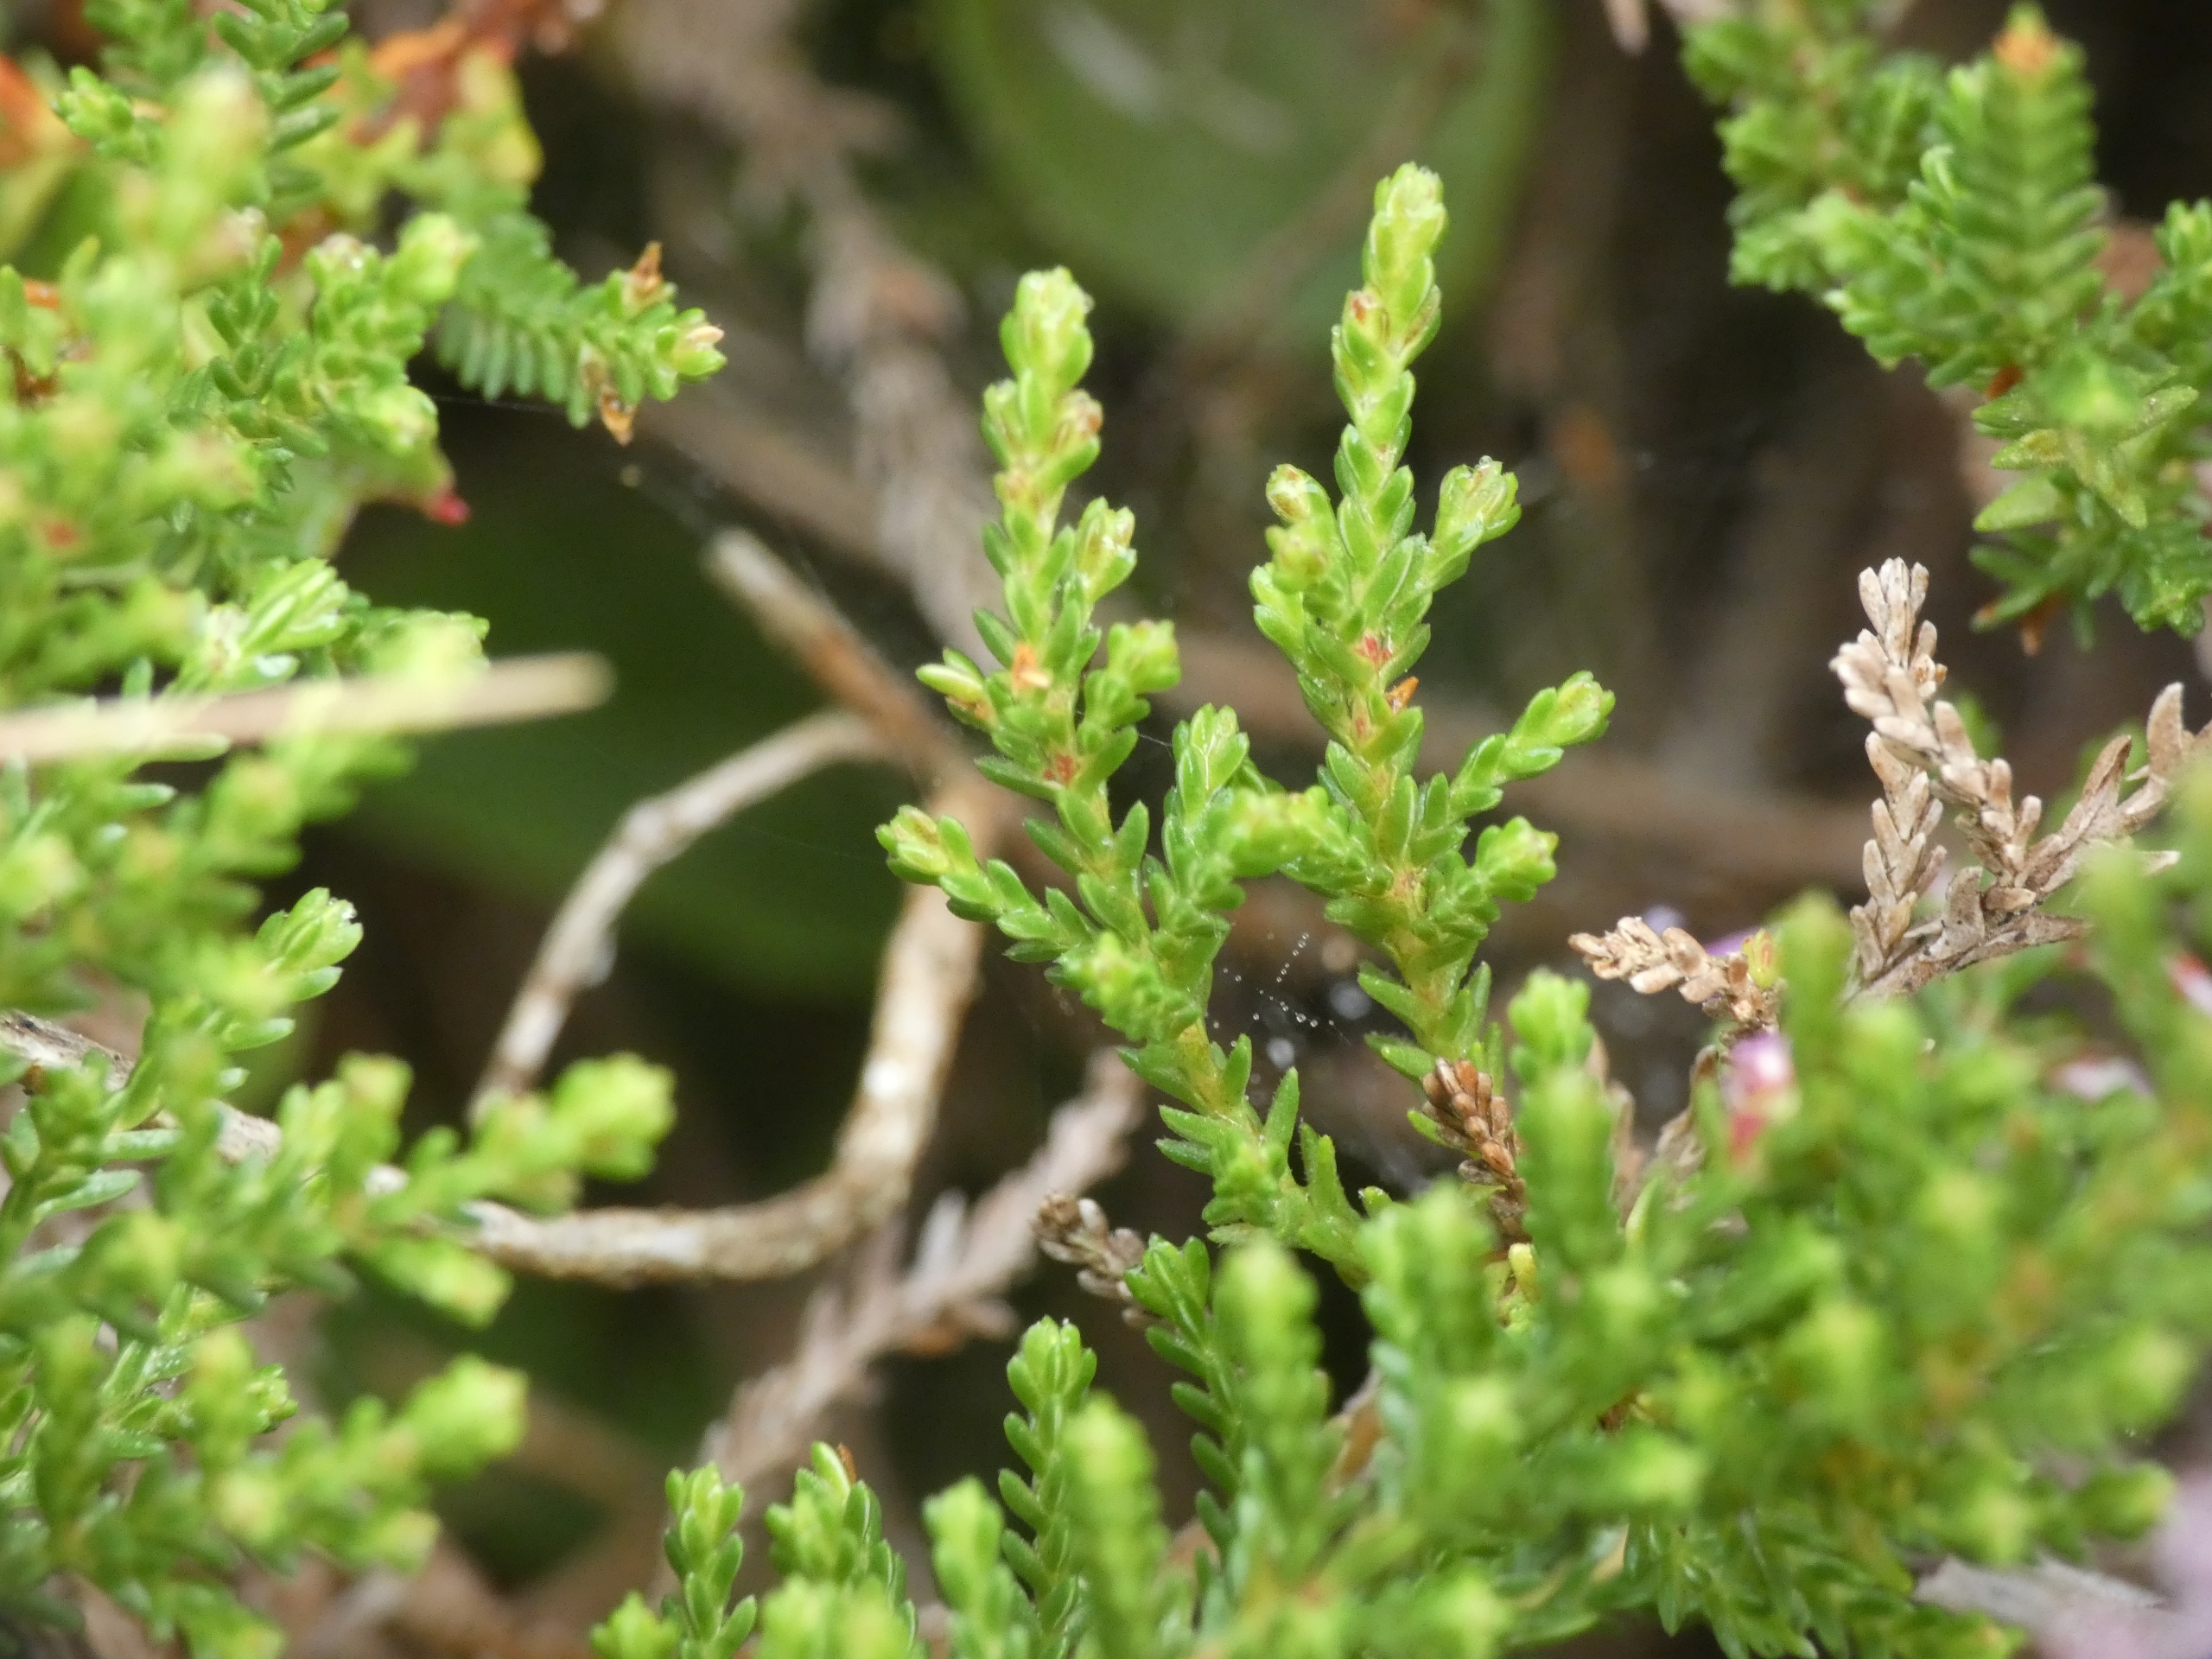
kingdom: Plantae
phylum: Tracheophyta
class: Magnoliopsida
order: Ericales
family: Ericaceae
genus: Calluna
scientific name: Calluna vulgaris
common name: Hedelyng
